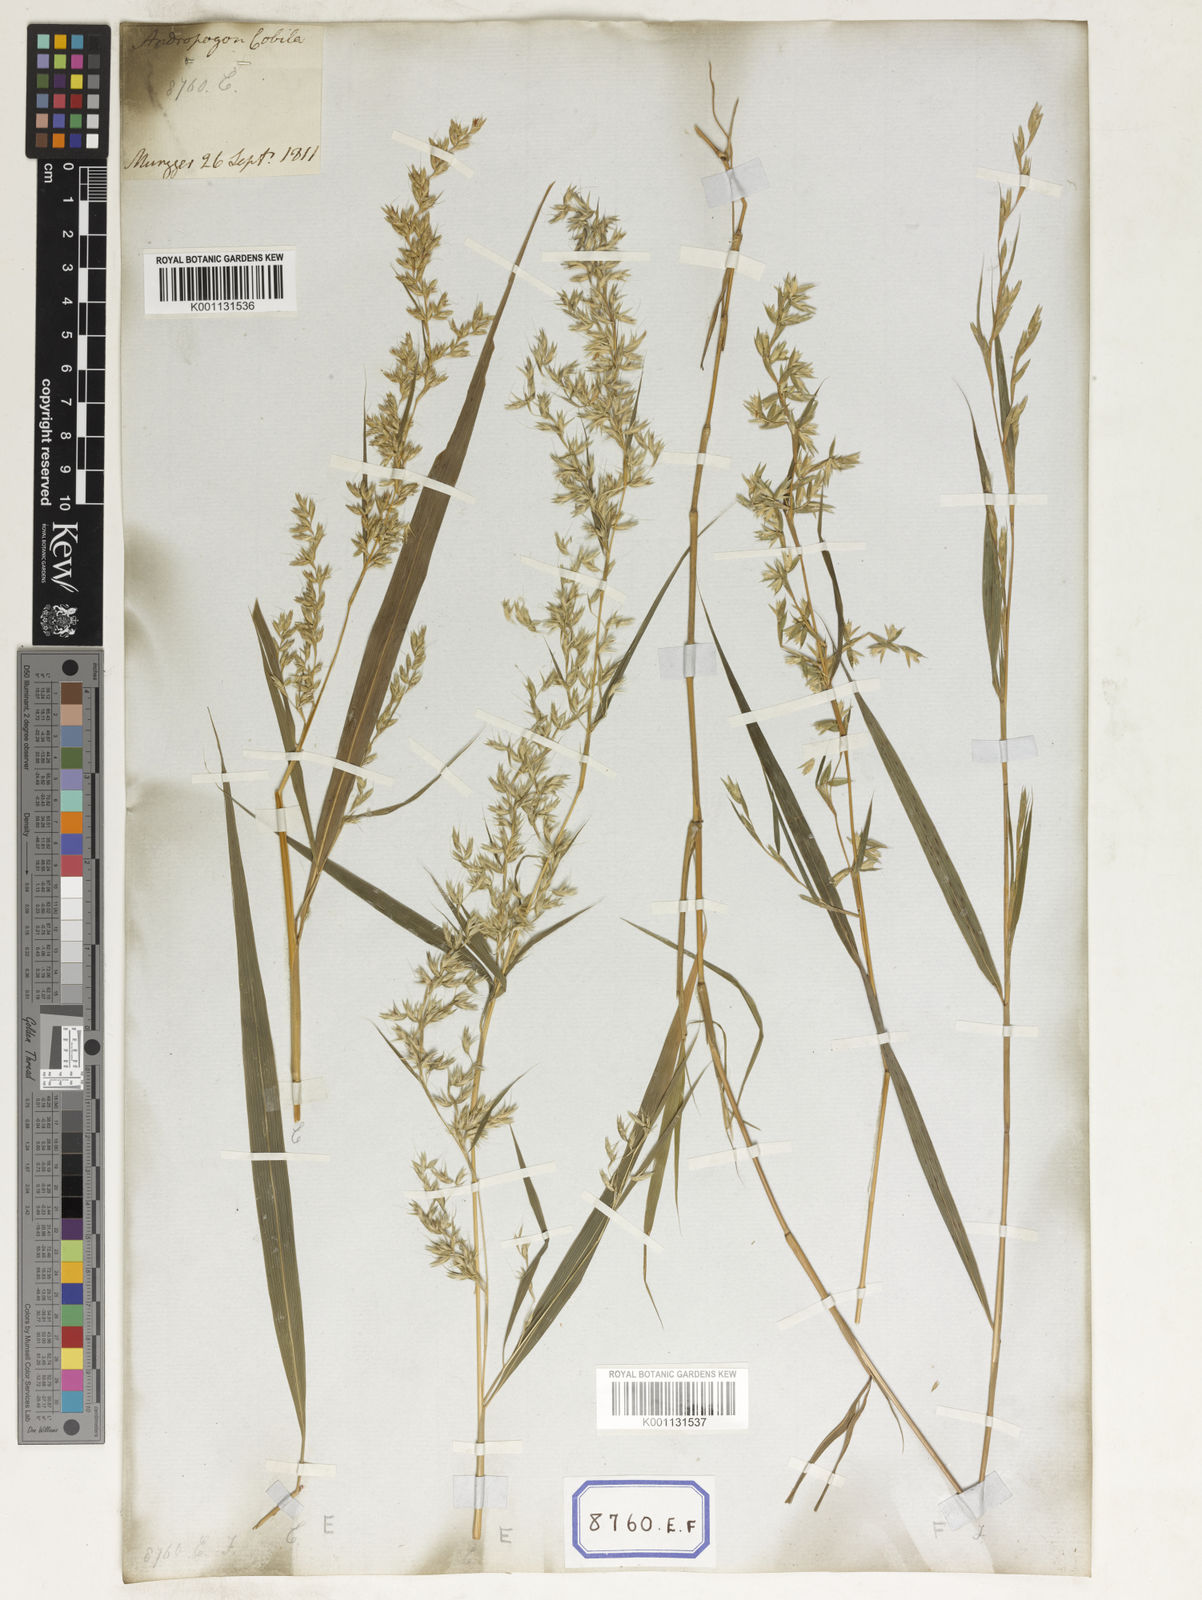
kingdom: Plantae
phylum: Tracheophyta
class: Liliopsida
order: Poales
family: Poaceae
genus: Apluda
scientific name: Apluda
